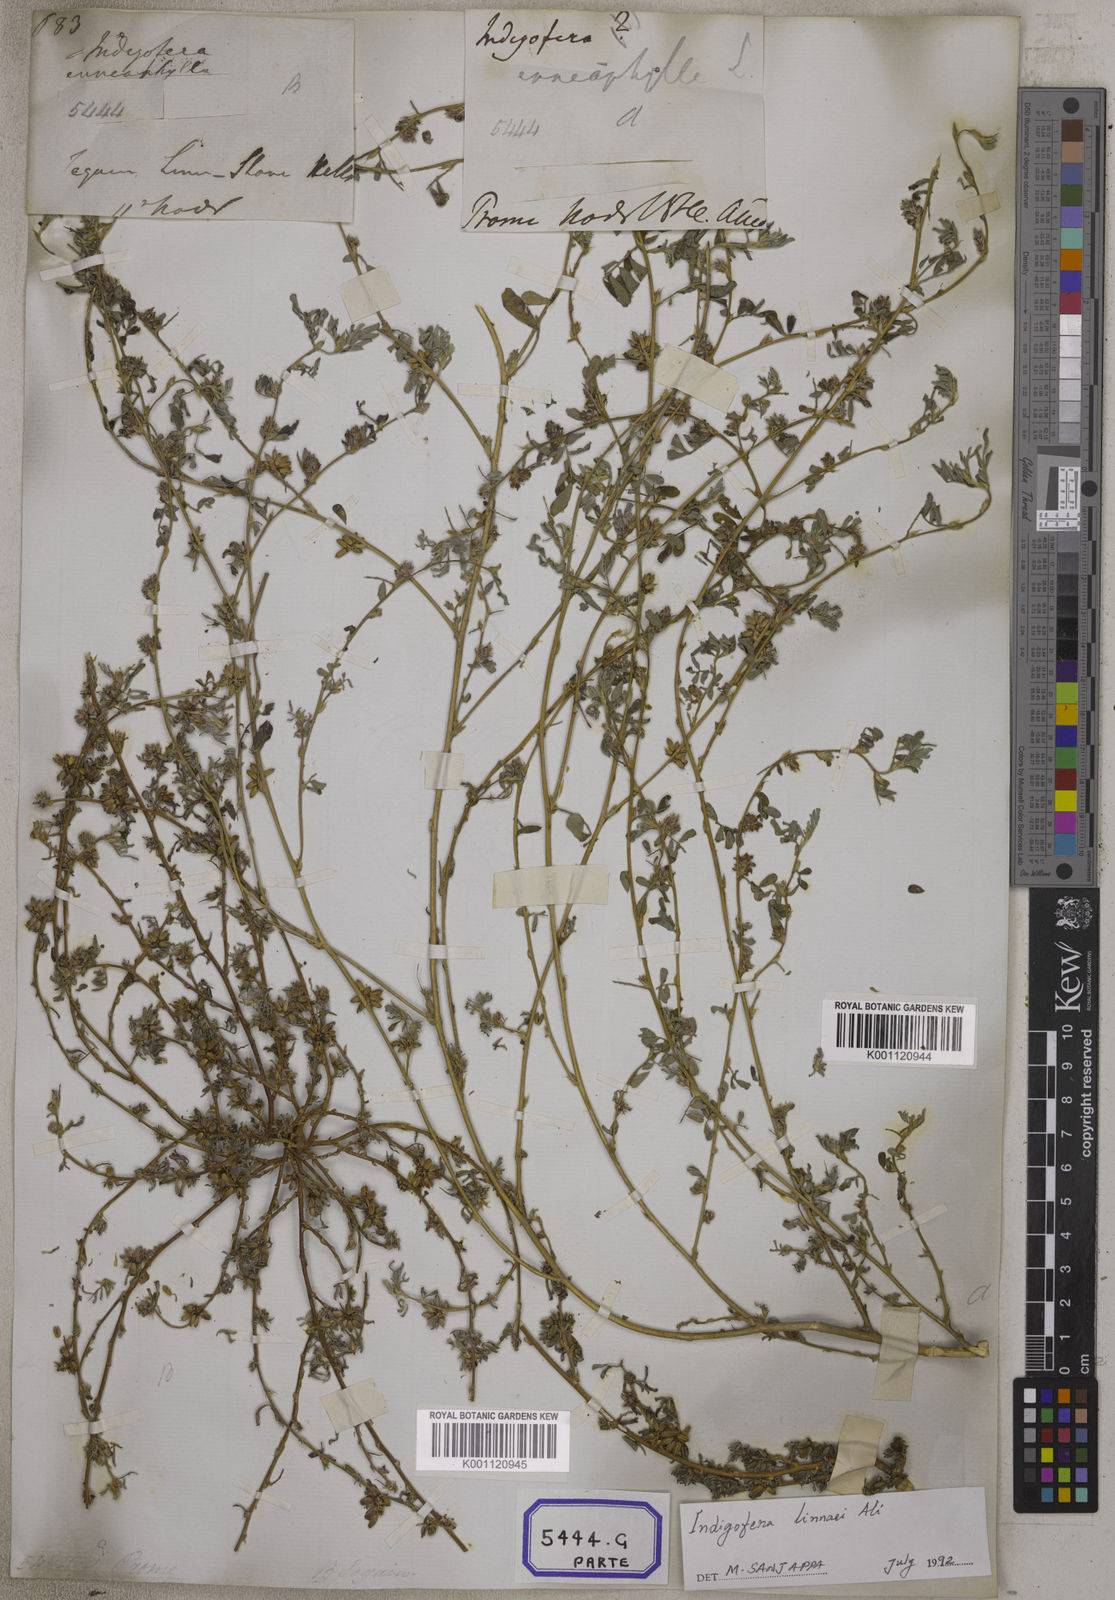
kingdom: Plantae
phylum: Tracheophyta
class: Magnoliopsida
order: Fabales
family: Fabaceae
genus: Indigofera
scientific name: Indigofera linnaei
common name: Nine-leaf indigo
